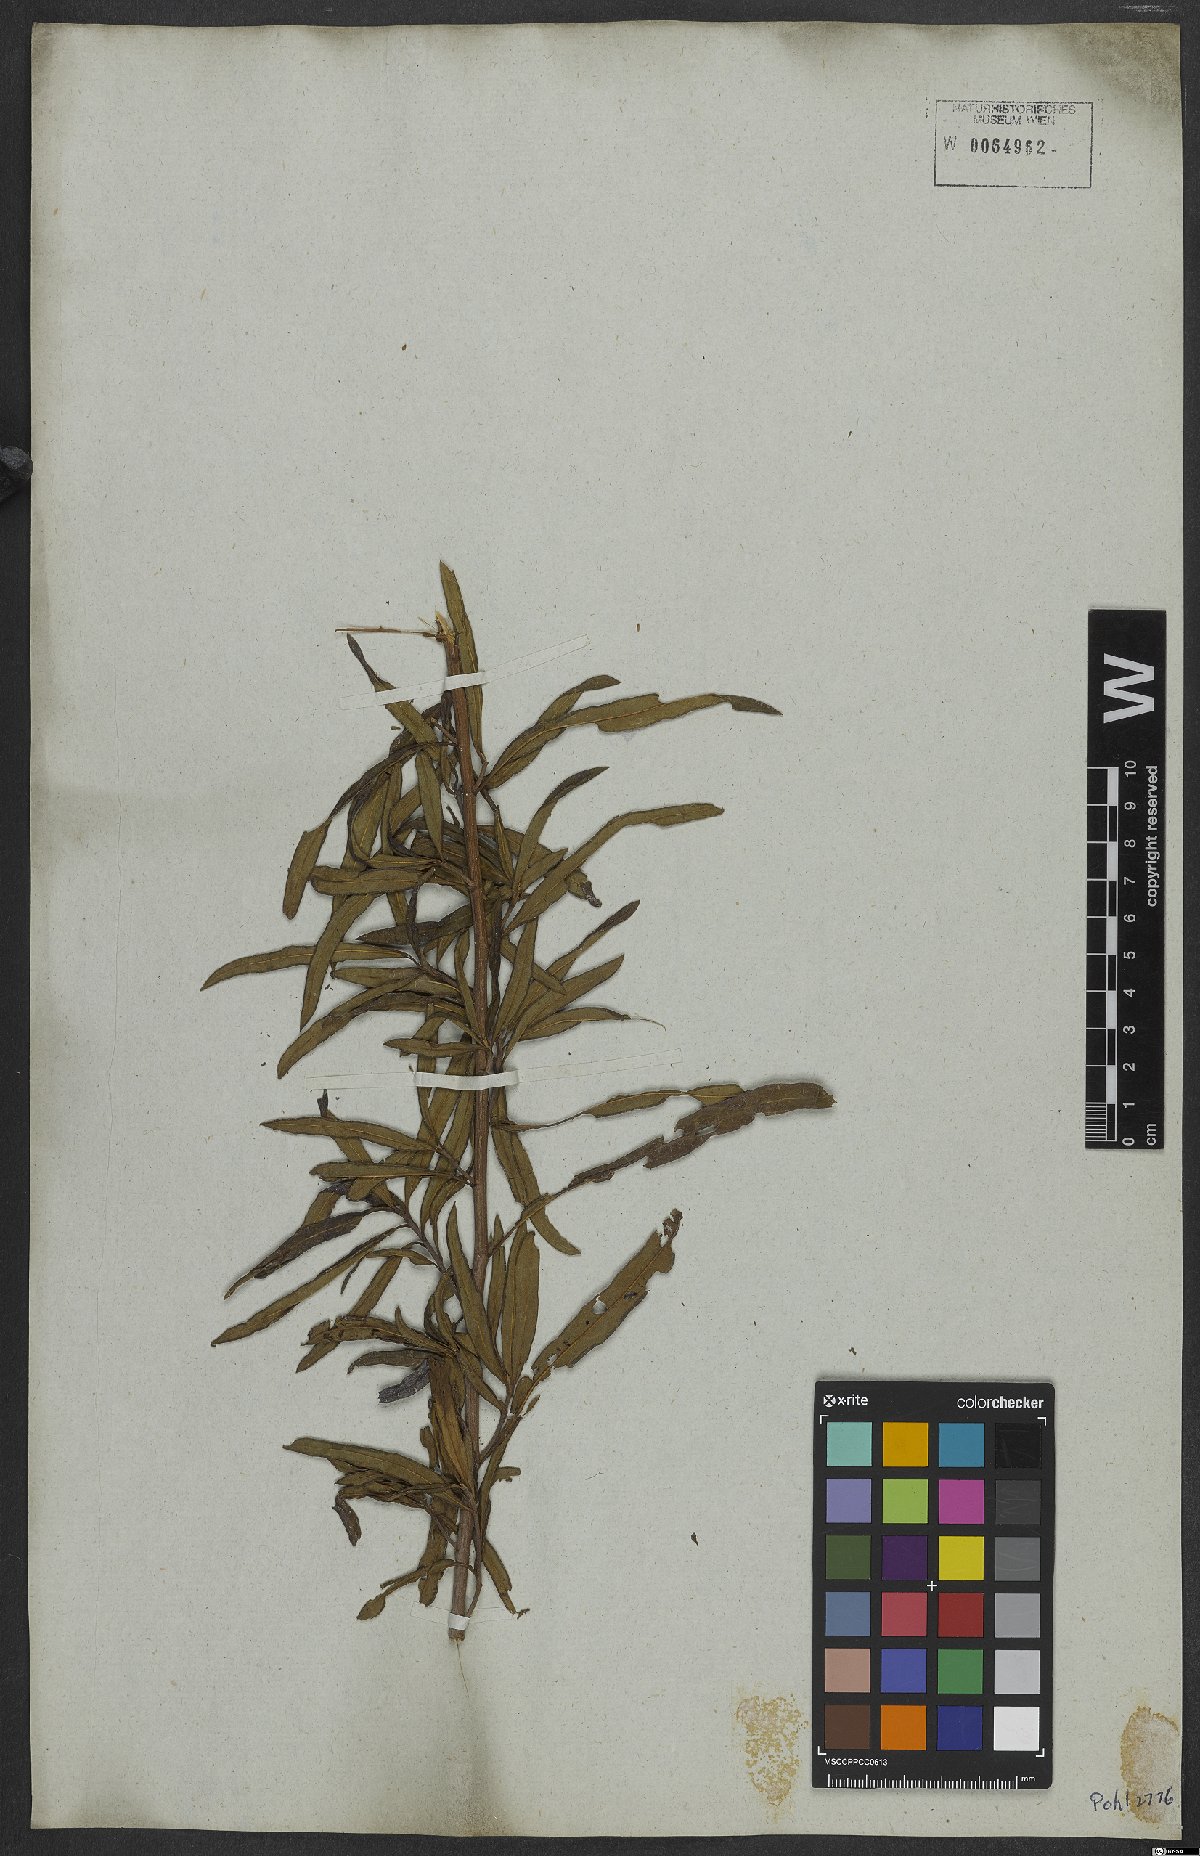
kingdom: Plantae
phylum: Tracheophyta
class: Magnoliopsida
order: Asterales
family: Asteraceae
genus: Vernonanthura
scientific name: Vernonanthura membranacea
